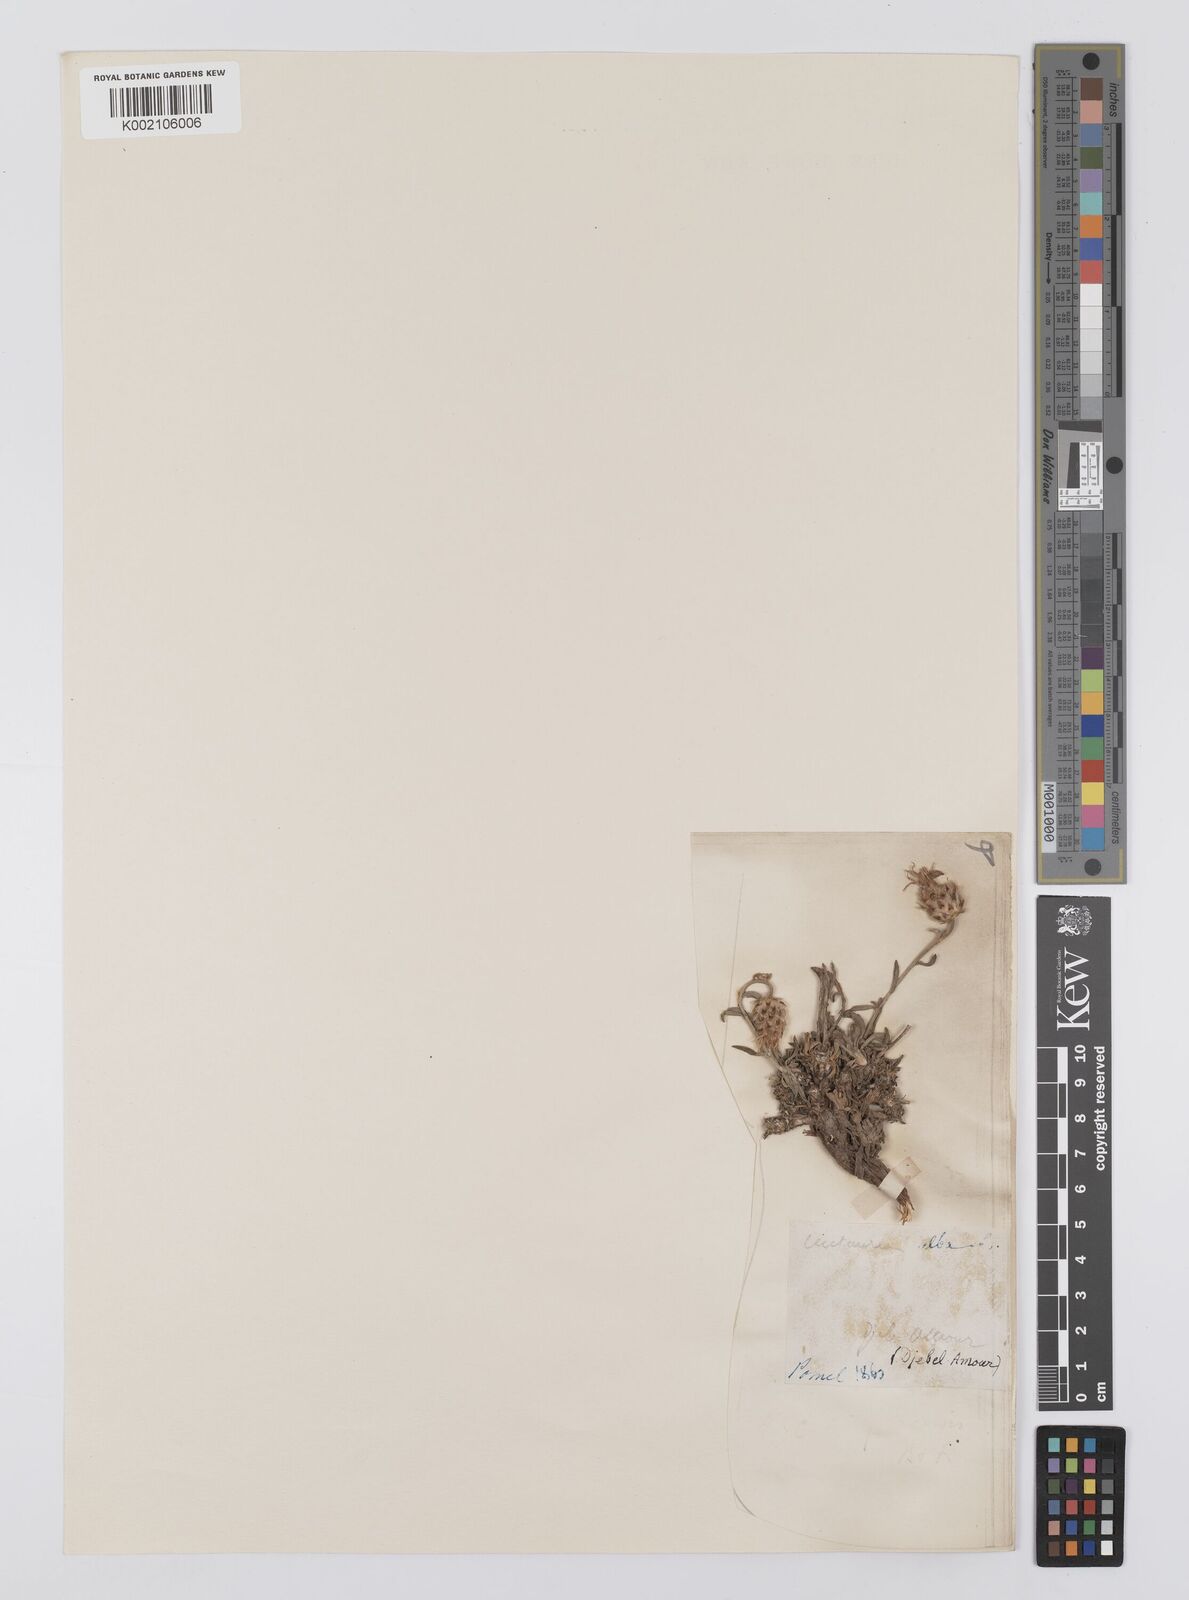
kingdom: Plantae
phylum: Tracheophyta
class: Magnoliopsida
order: Asterales
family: Asteraceae
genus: Centaurea
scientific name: Centaurea alba
